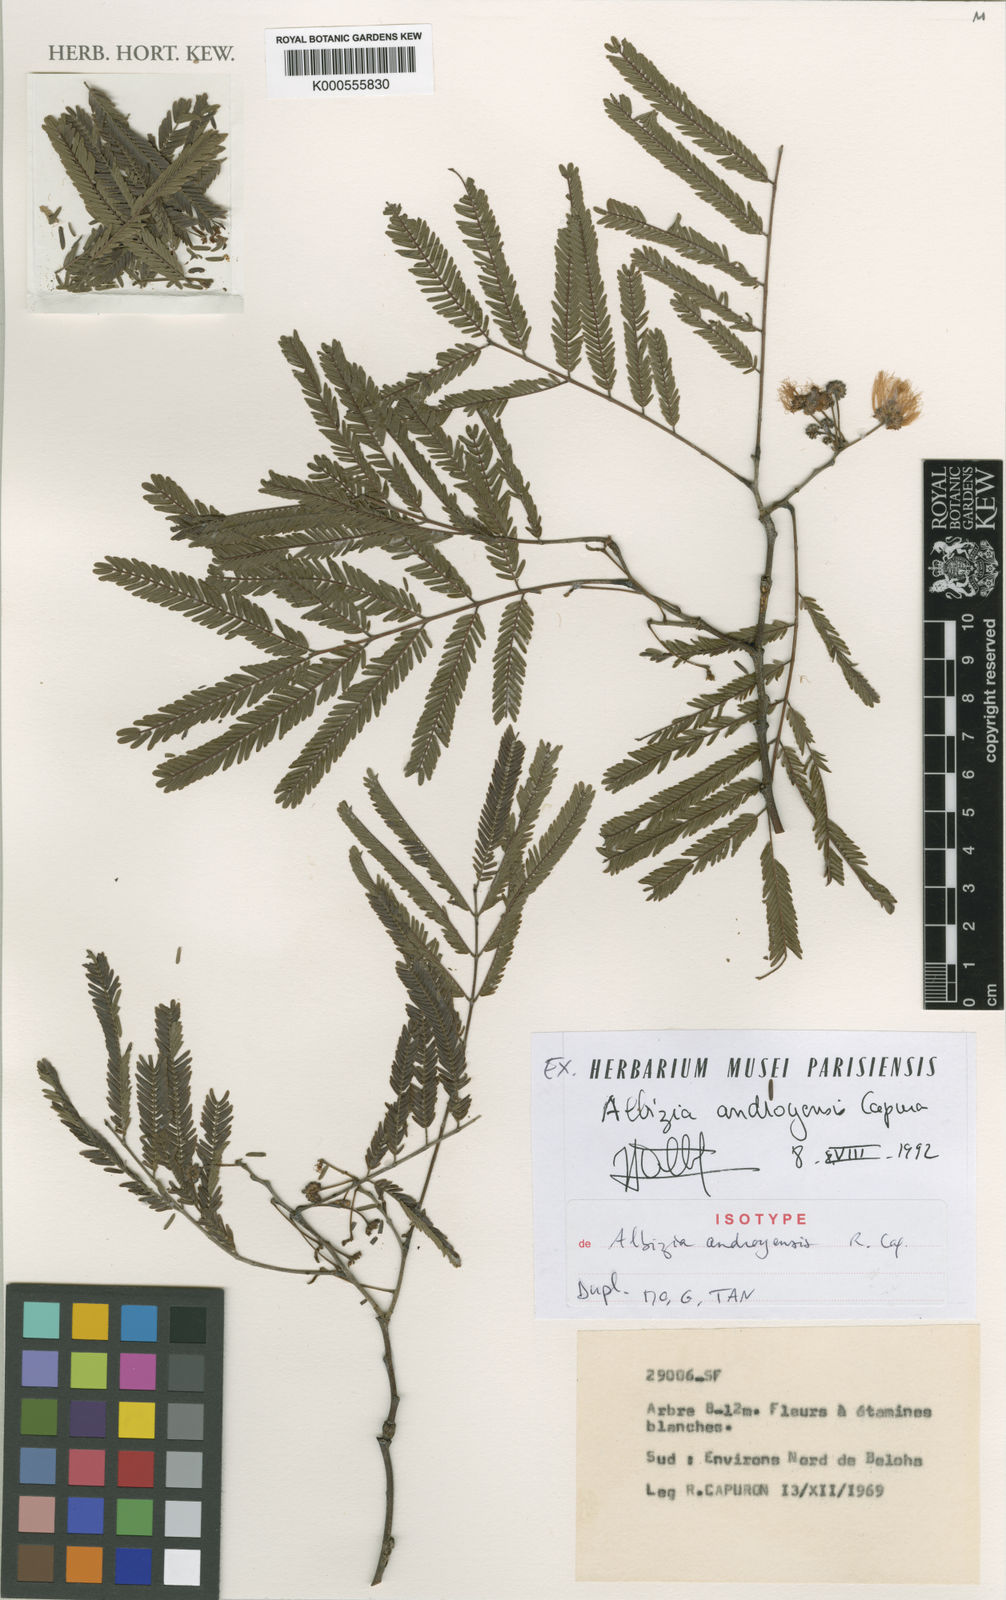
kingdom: Plantae
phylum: Tracheophyta
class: Magnoliopsida
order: Fabales
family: Fabaceae
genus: Albizia
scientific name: Albizia androyensis
